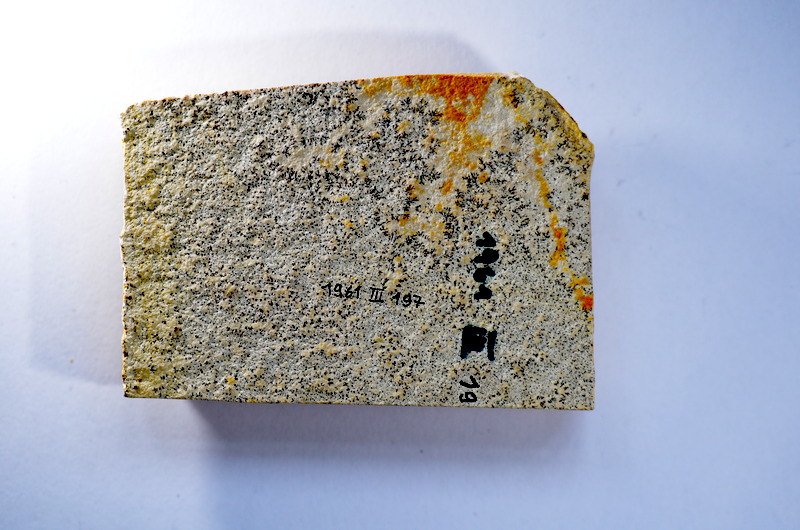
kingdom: Animalia
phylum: Chordata
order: Salmoniformes
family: Orthogonikleithridae
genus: Leptolepides
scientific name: Leptolepides
